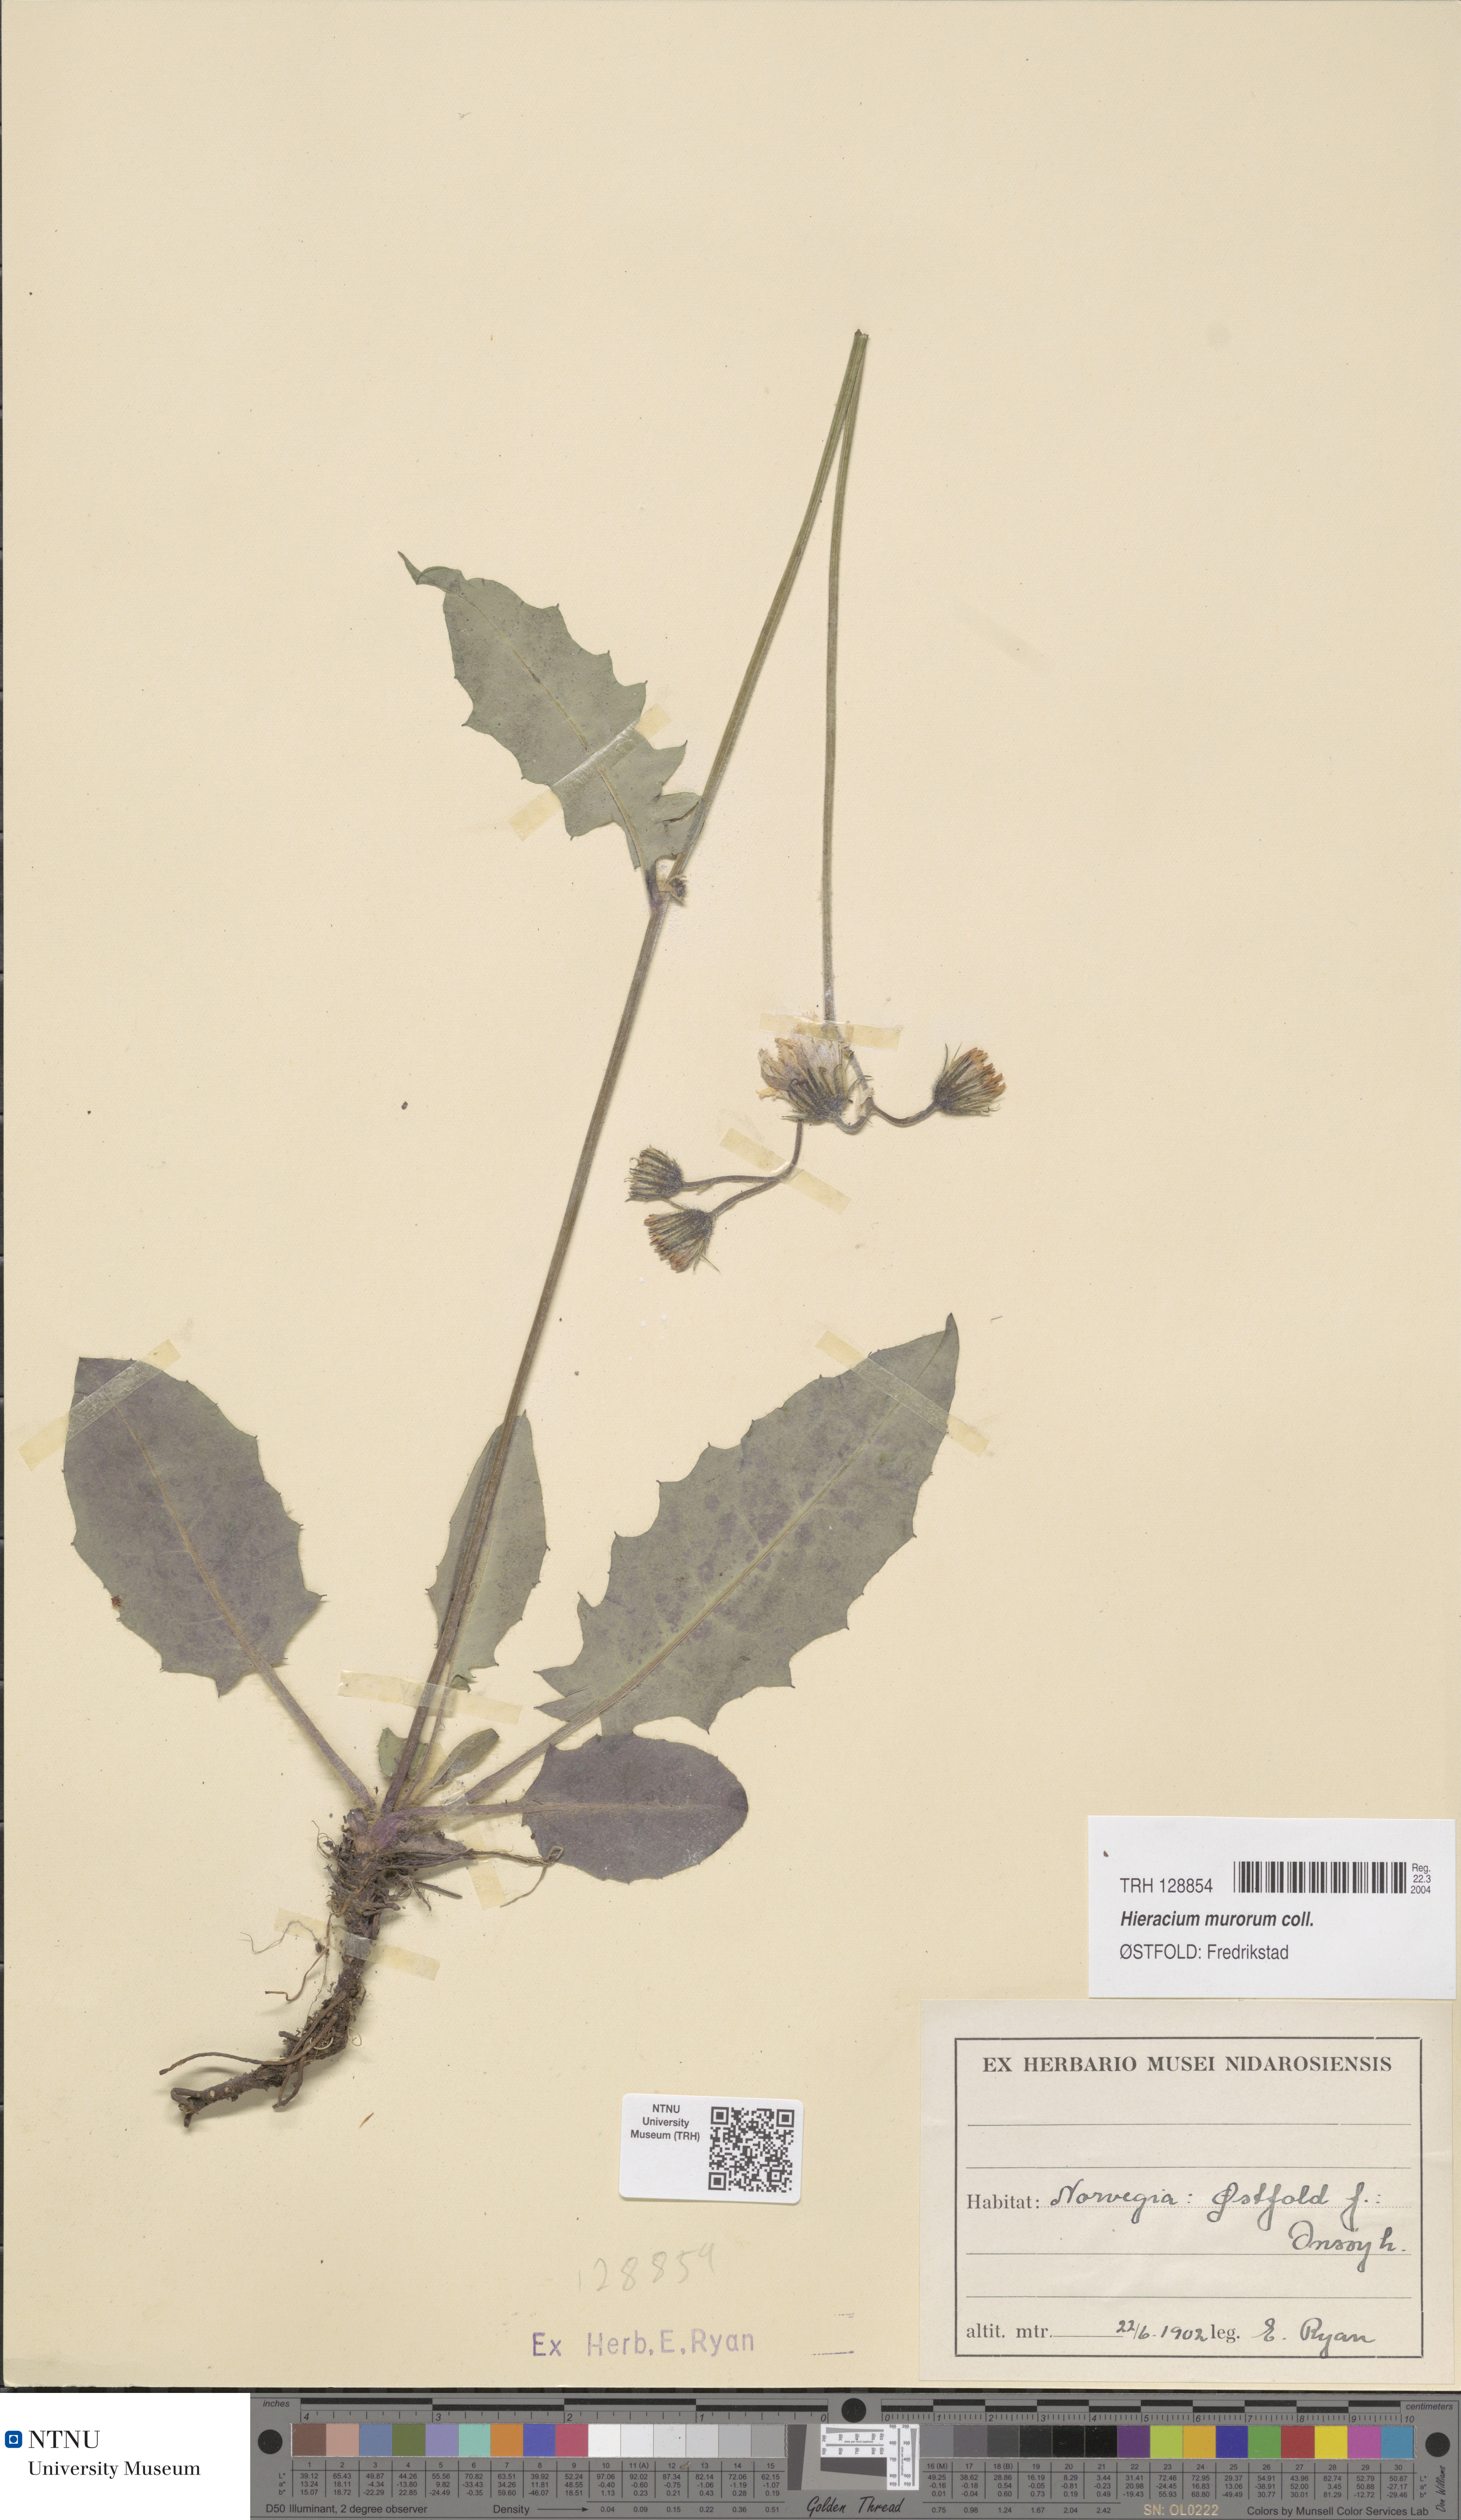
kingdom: Plantae
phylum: Tracheophyta
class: Magnoliopsida
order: Asterales
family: Asteraceae
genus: Hieracium
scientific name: Hieracium murorum
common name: Wall hawkweed
